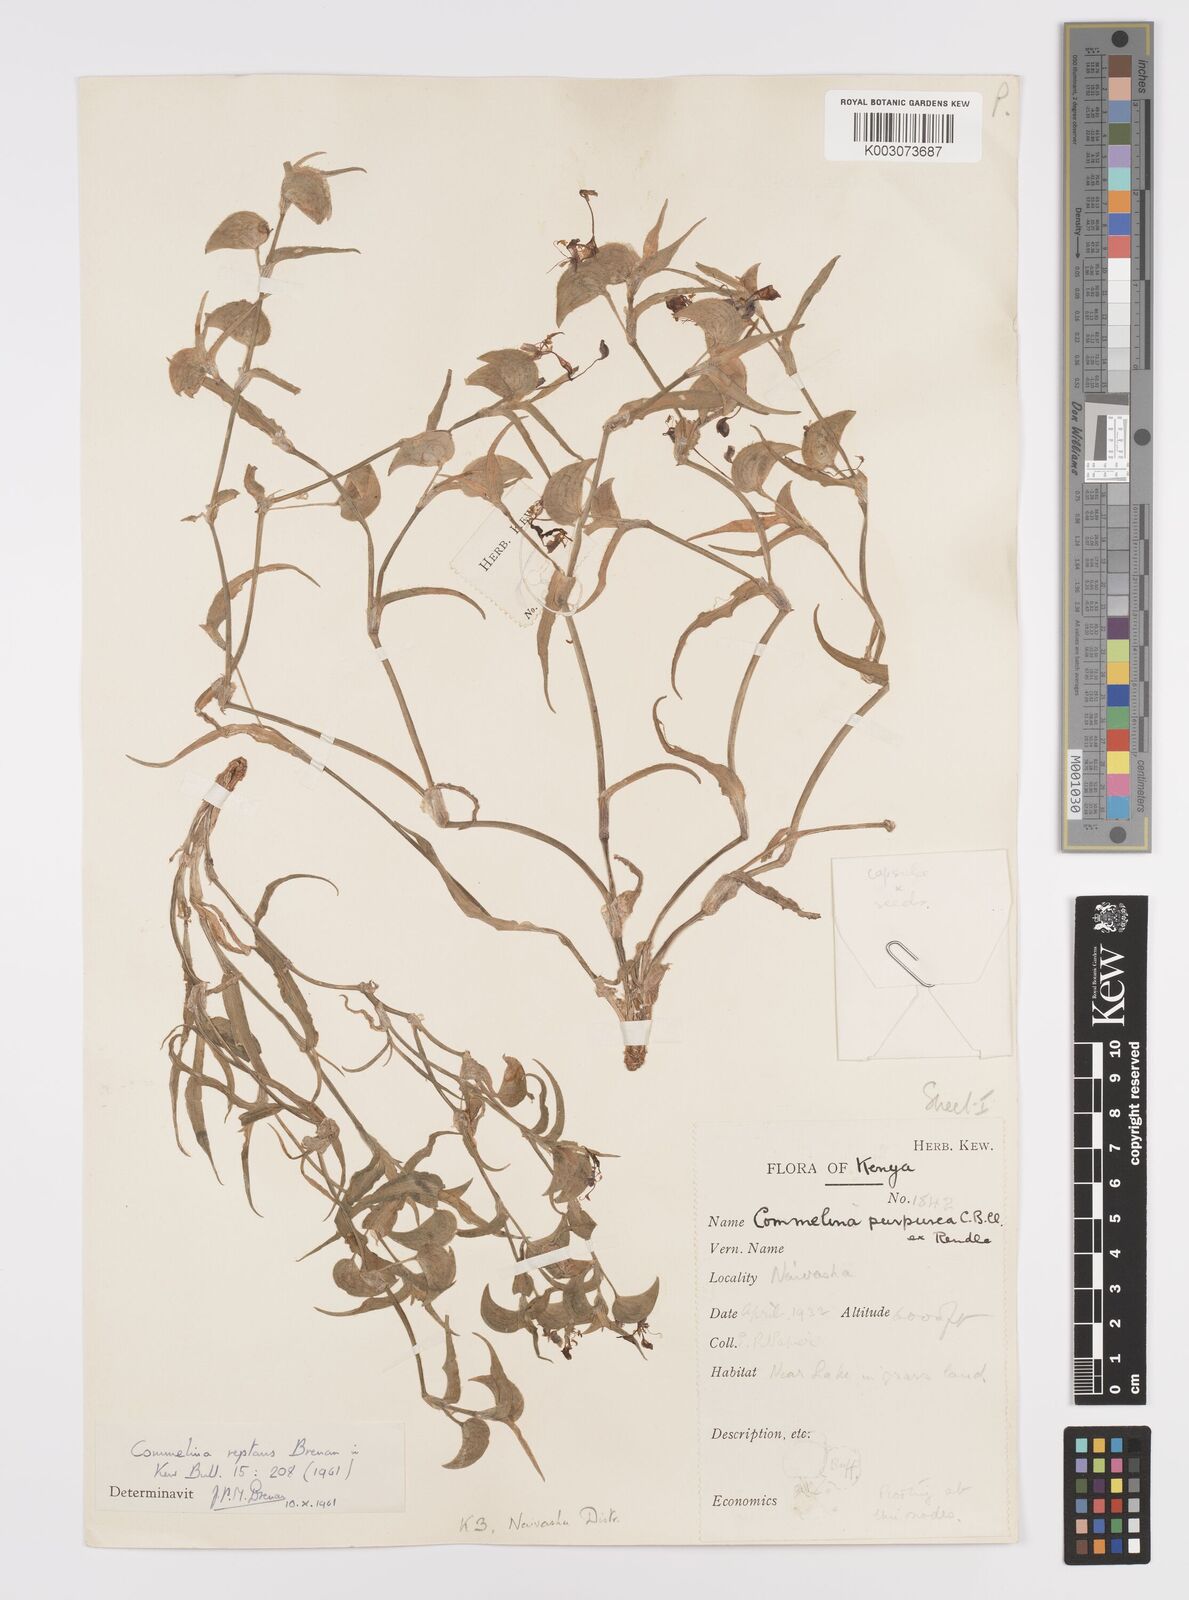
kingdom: Plantae
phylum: Tracheophyta
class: Liliopsida
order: Commelinales
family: Commelinaceae
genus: Commelina
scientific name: Commelina reptans
